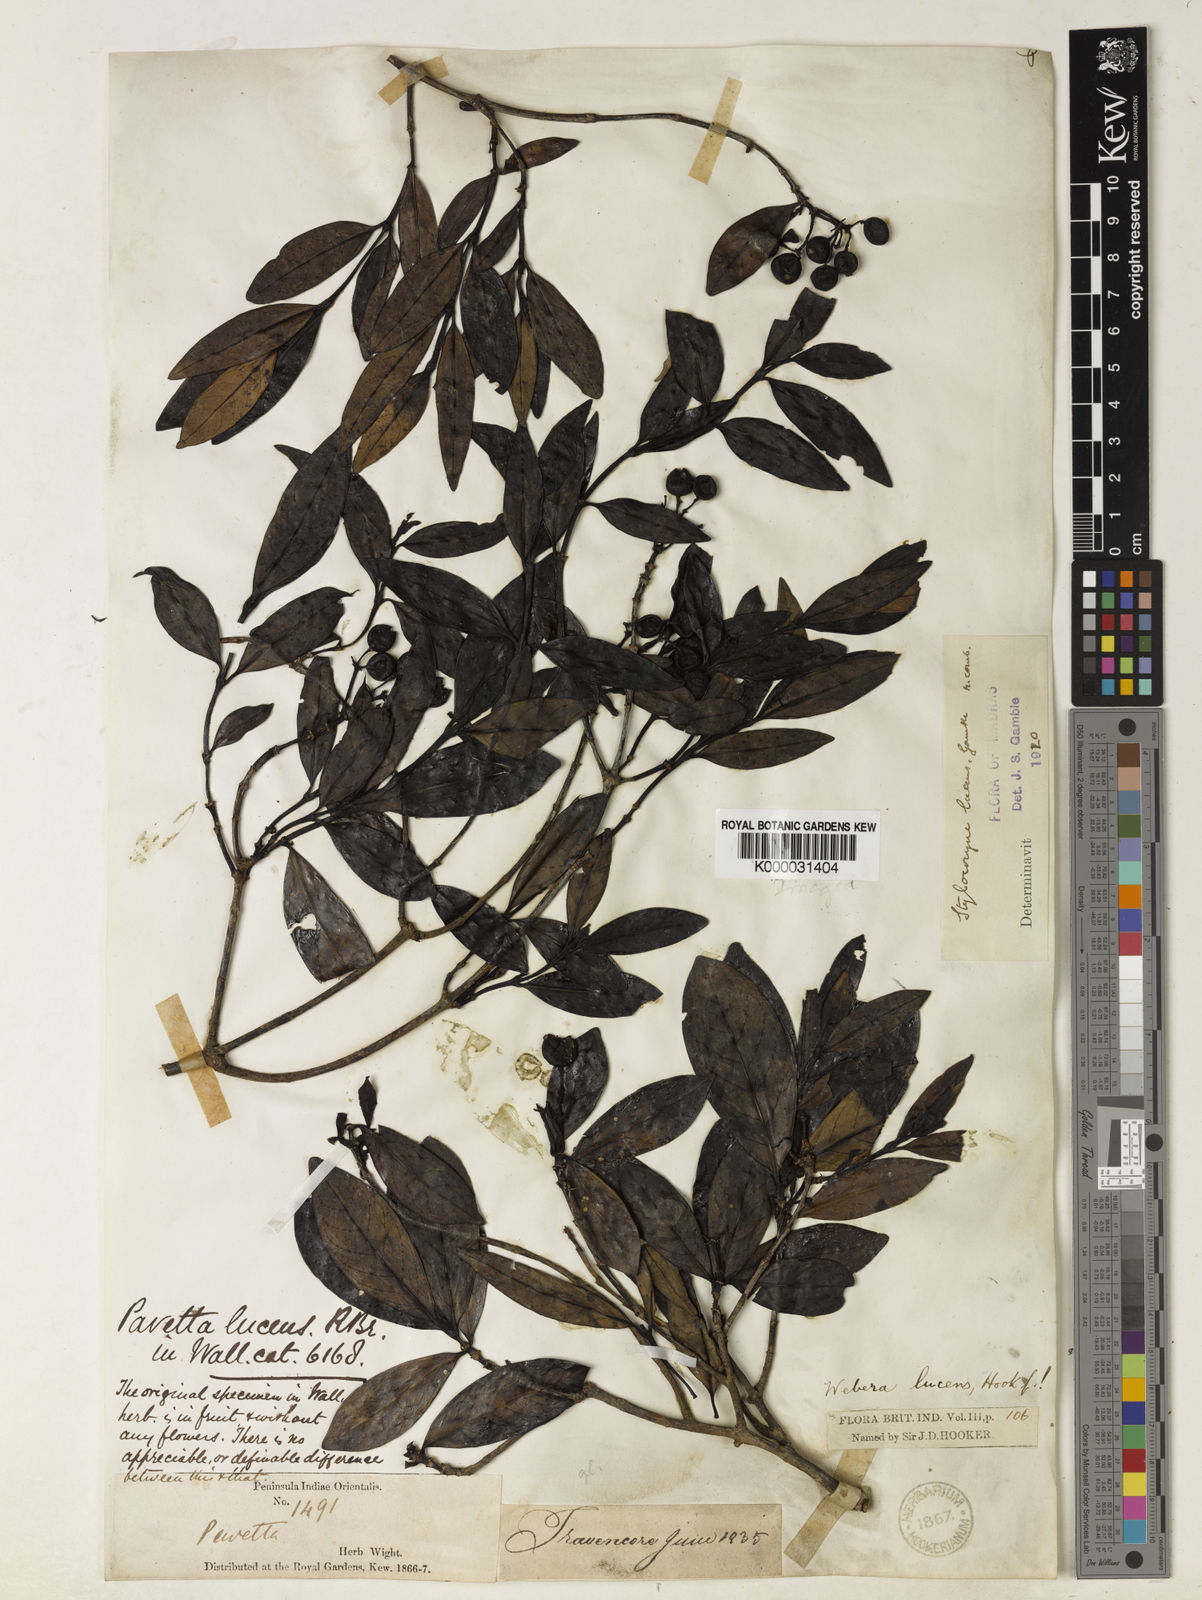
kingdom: Plantae
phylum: Tracheophyta
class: Magnoliopsida
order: Gentianales
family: Rubiaceae
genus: Tarenna
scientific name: Tarenna alpestris
